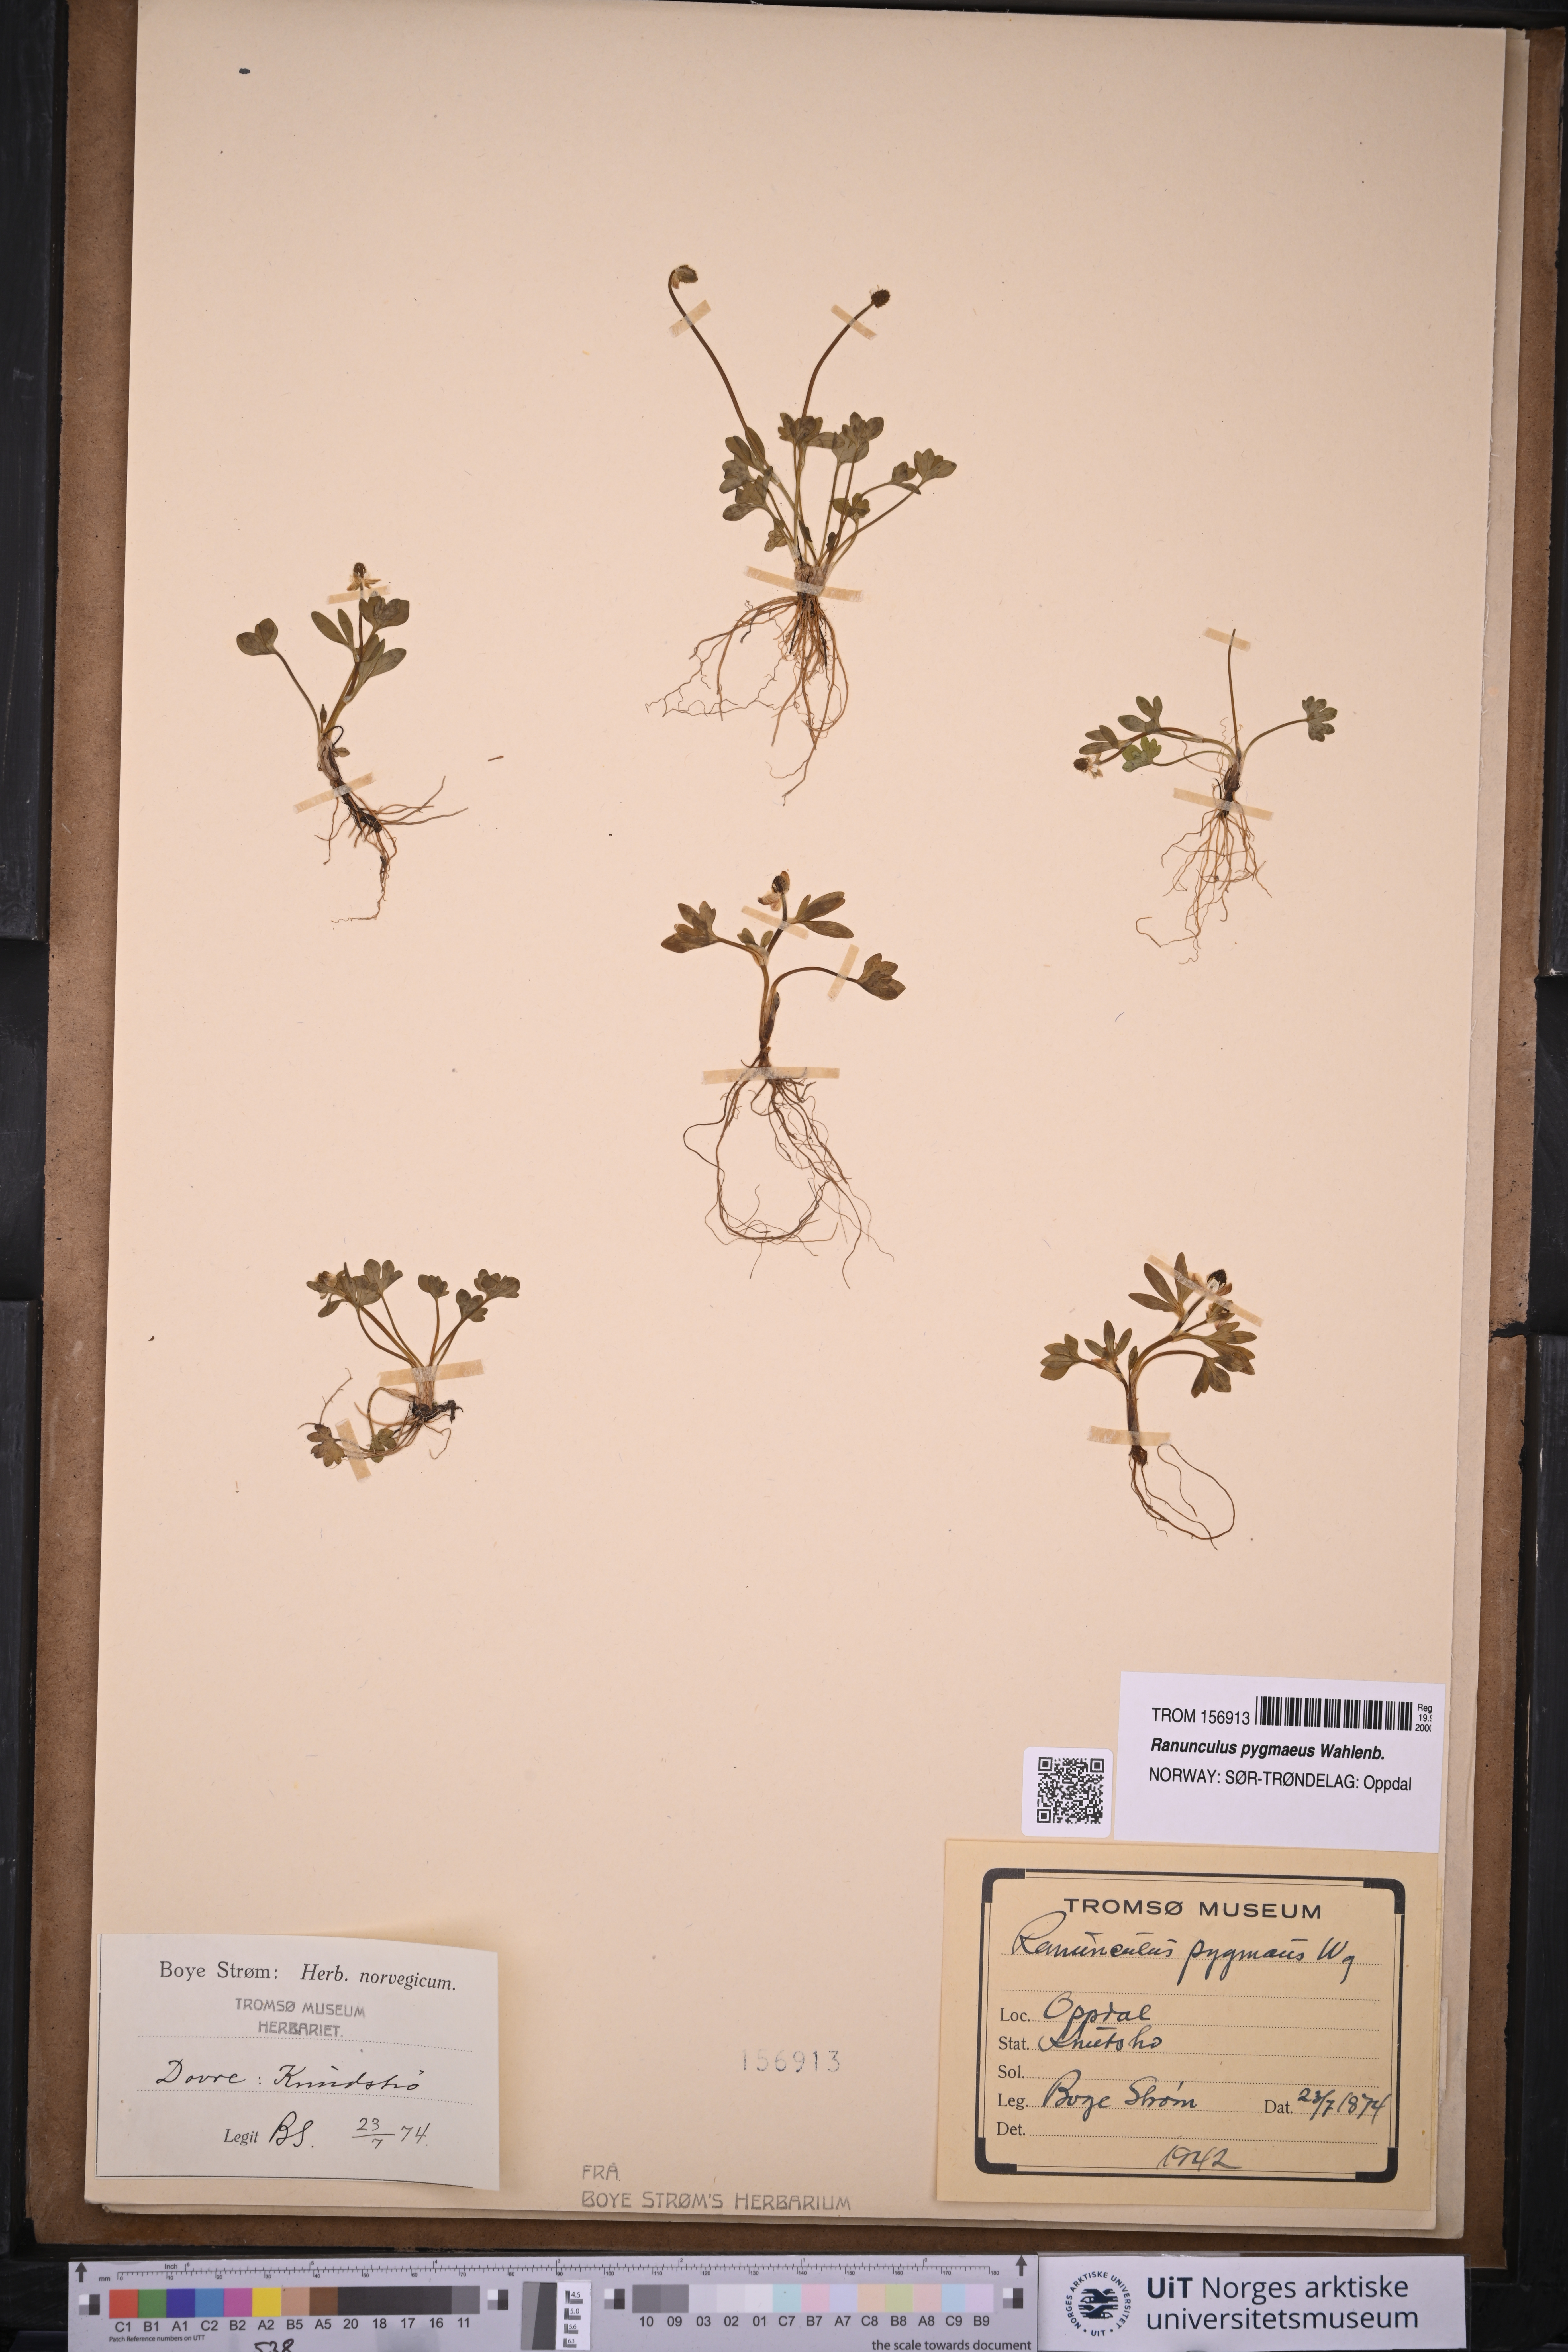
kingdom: Plantae
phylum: Tracheophyta
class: Magnoliopsida
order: Ranunculales
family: Ranunculaceae
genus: Ranunculus
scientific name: Ranunculus pygmaeus
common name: Dwarf buttercup
